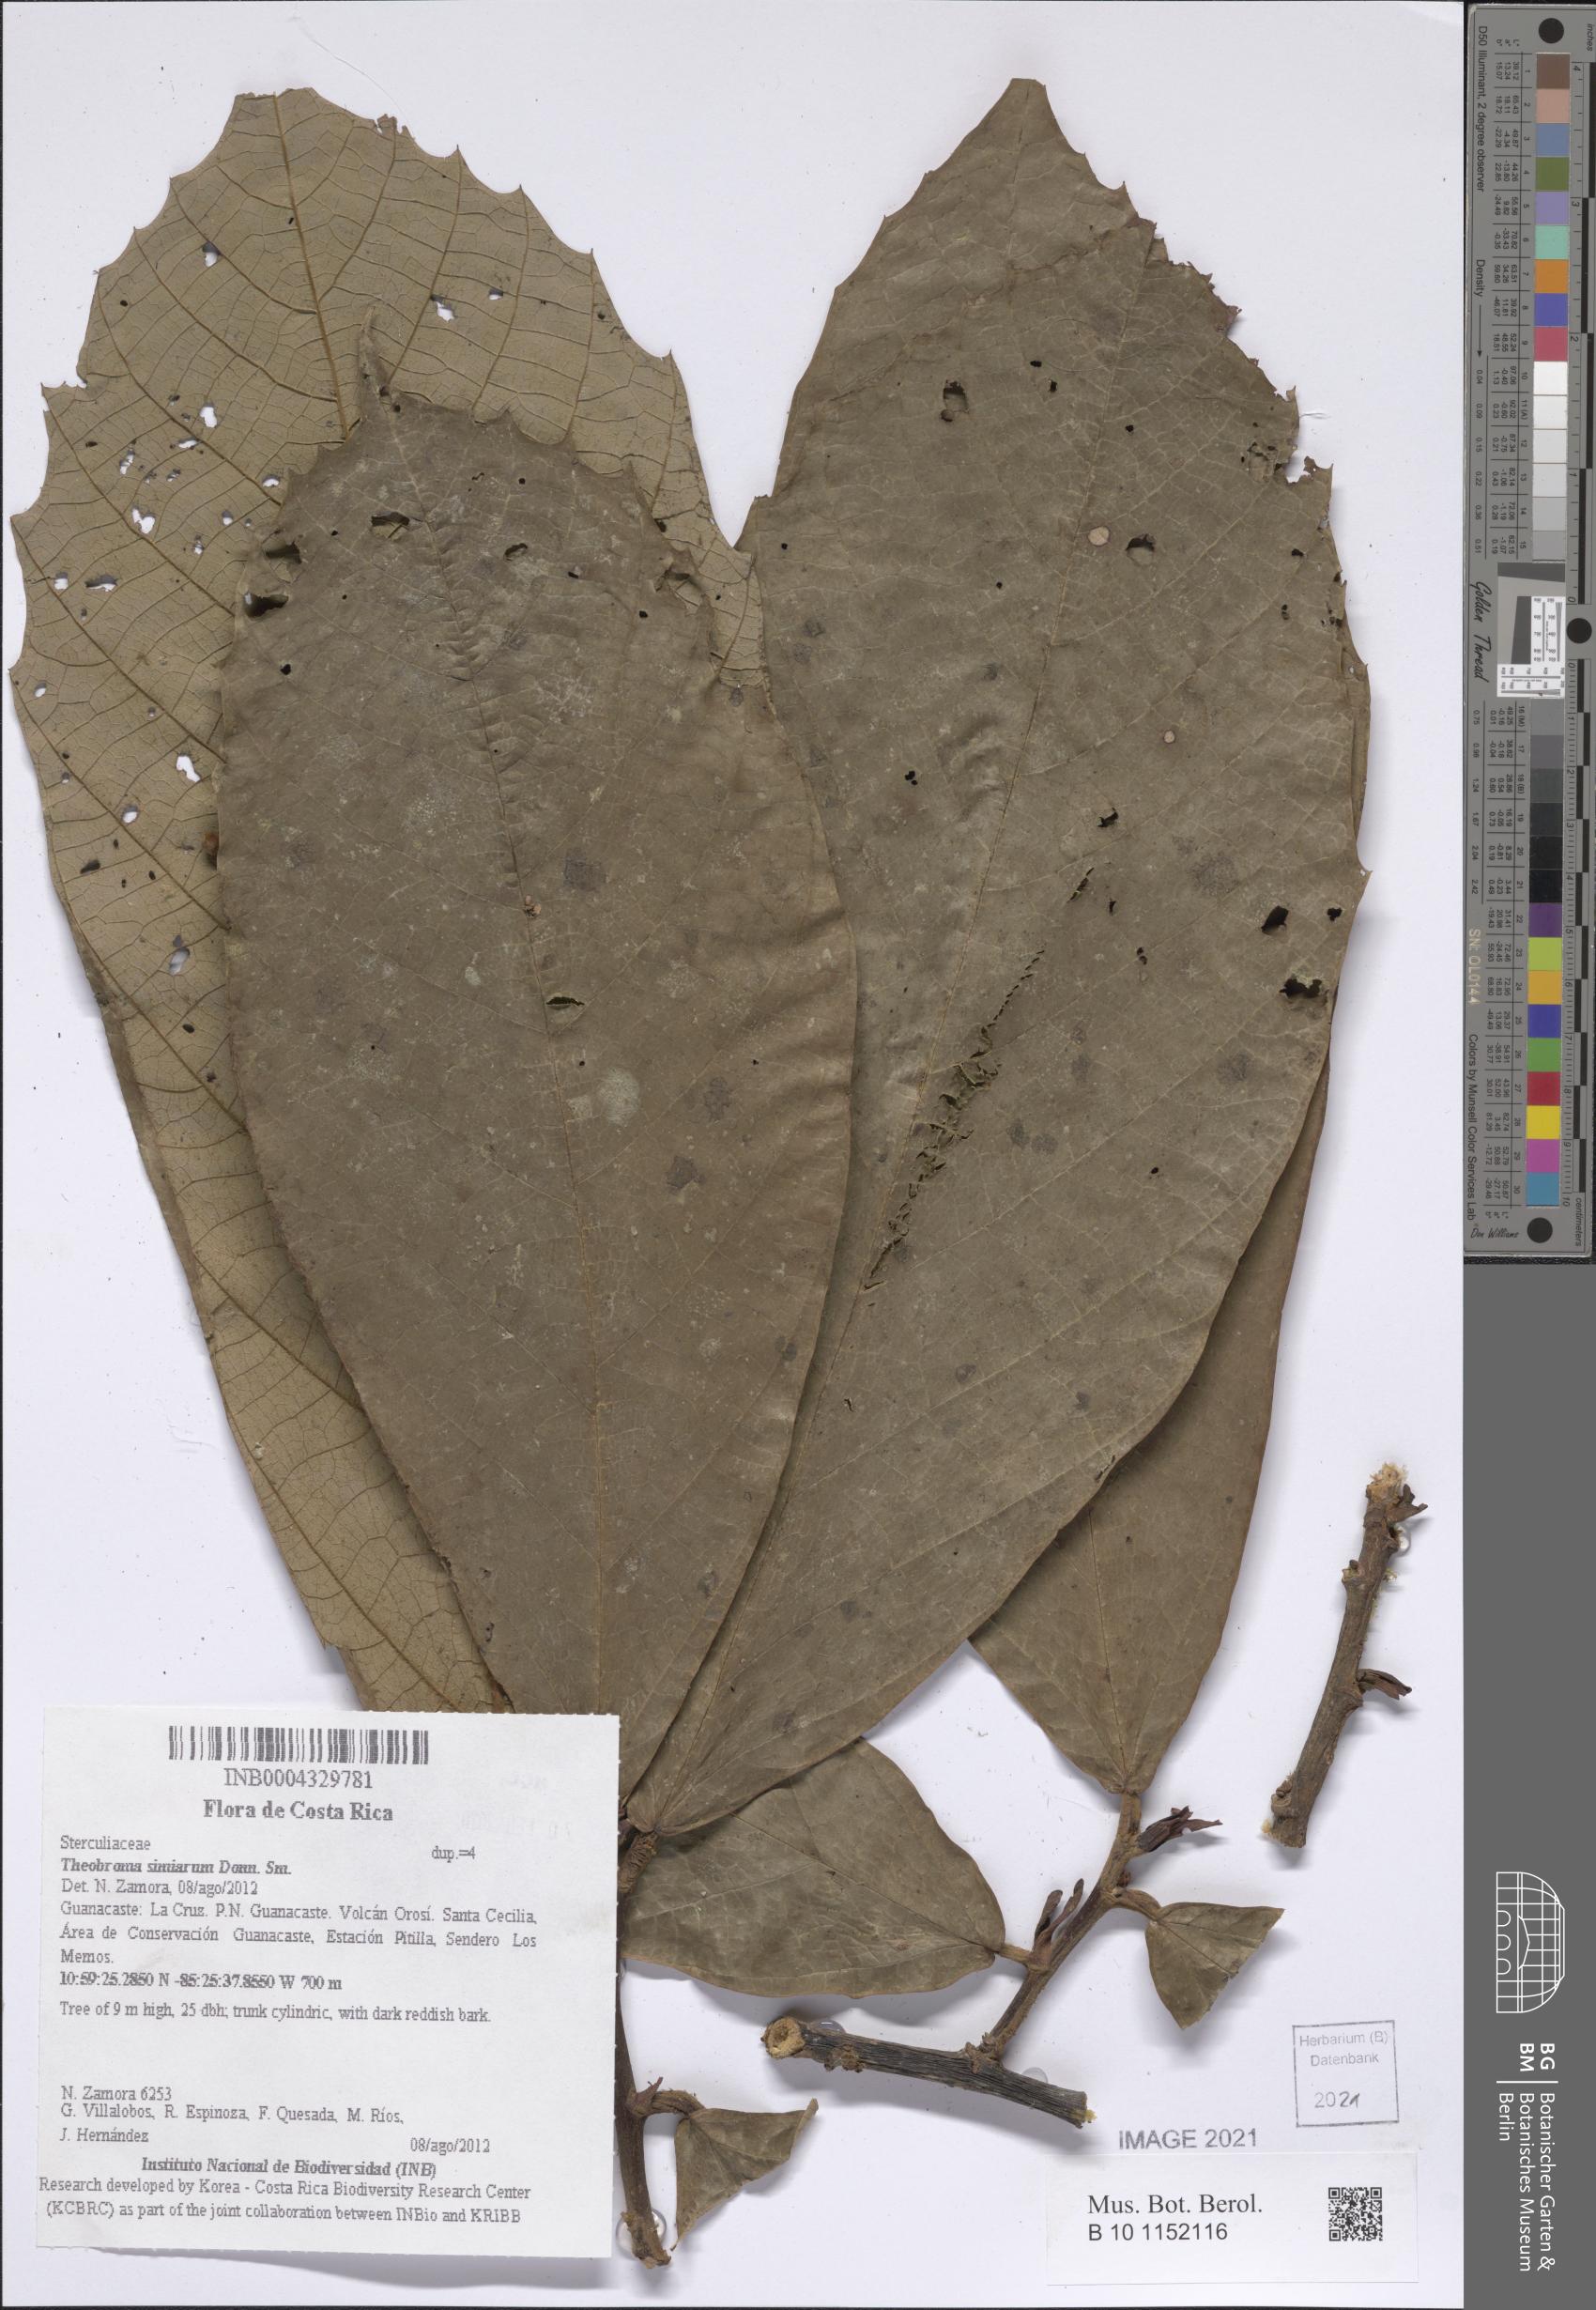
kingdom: Plantae
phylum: Tracheophyta
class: Magnoliopsida
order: Malvales
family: Malvaceae
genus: Theobroma
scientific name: Theobroma simiarum
